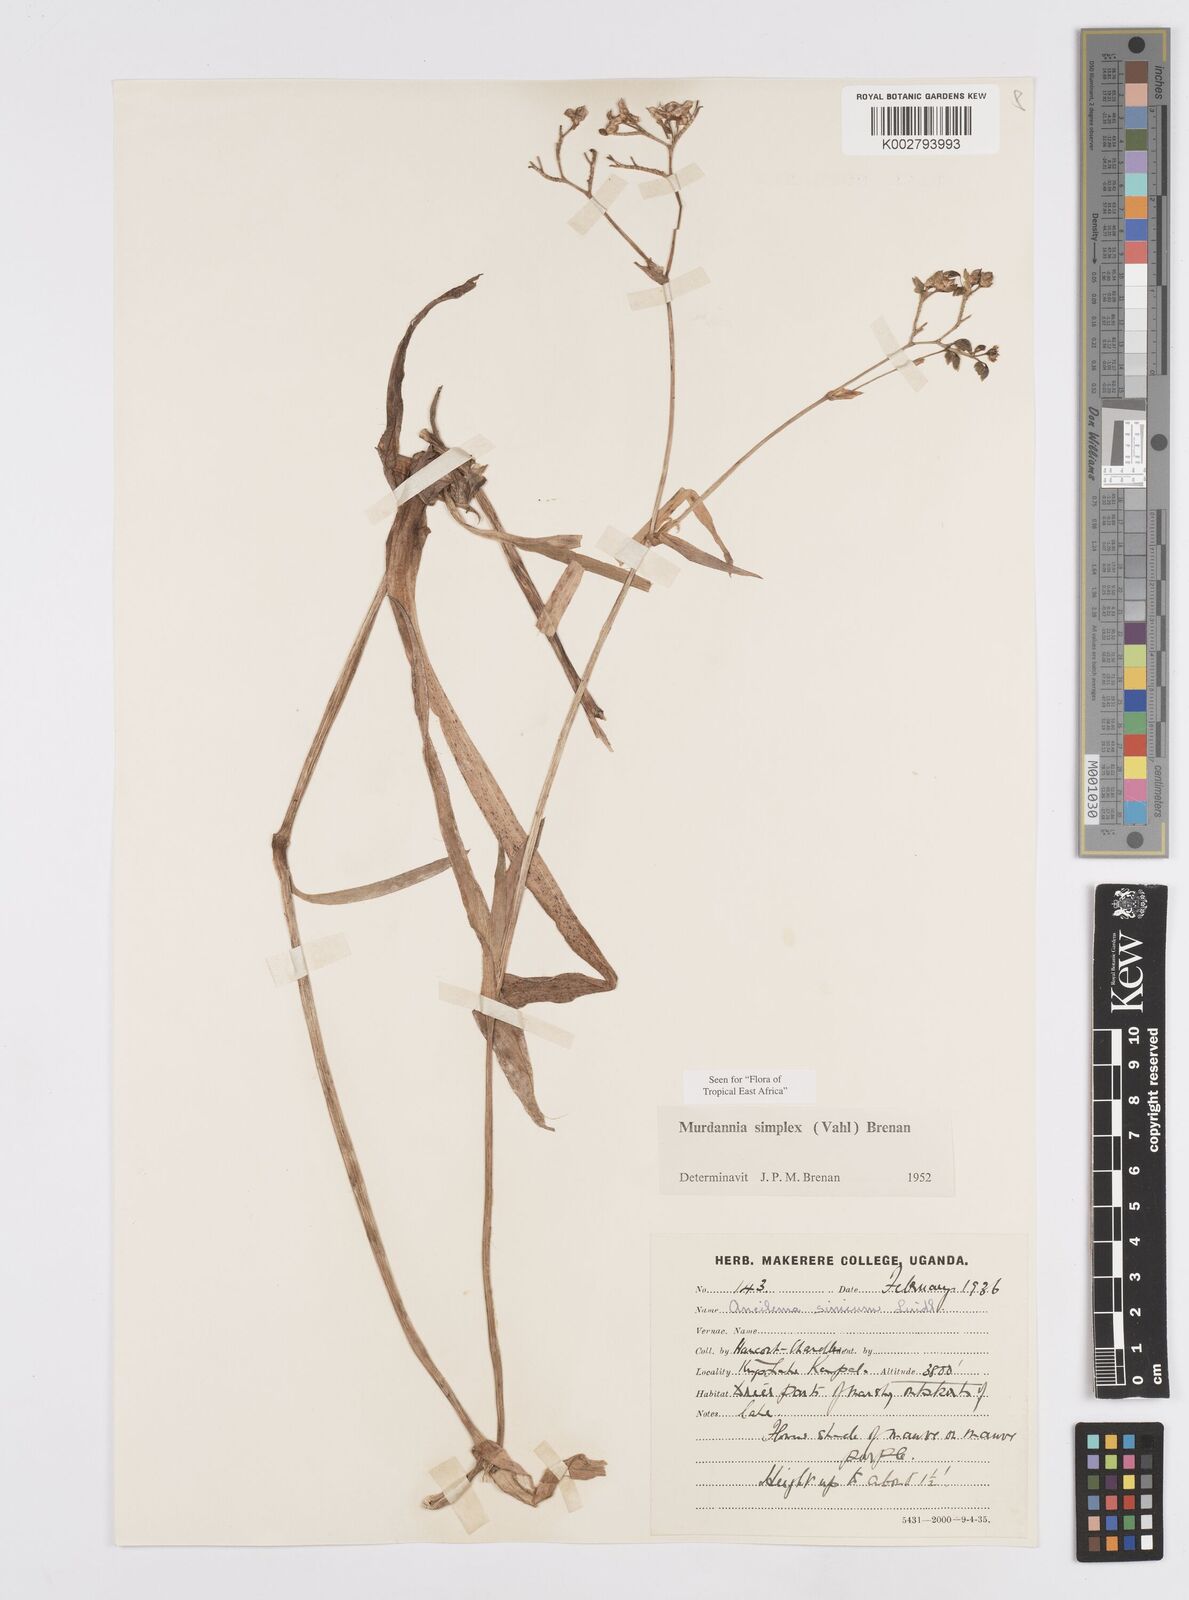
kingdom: Plantae
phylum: Tracheophyta
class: Liliopsida
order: Commelinales
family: Commelinaceae
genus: Murdannia
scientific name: Murdannia simplex
